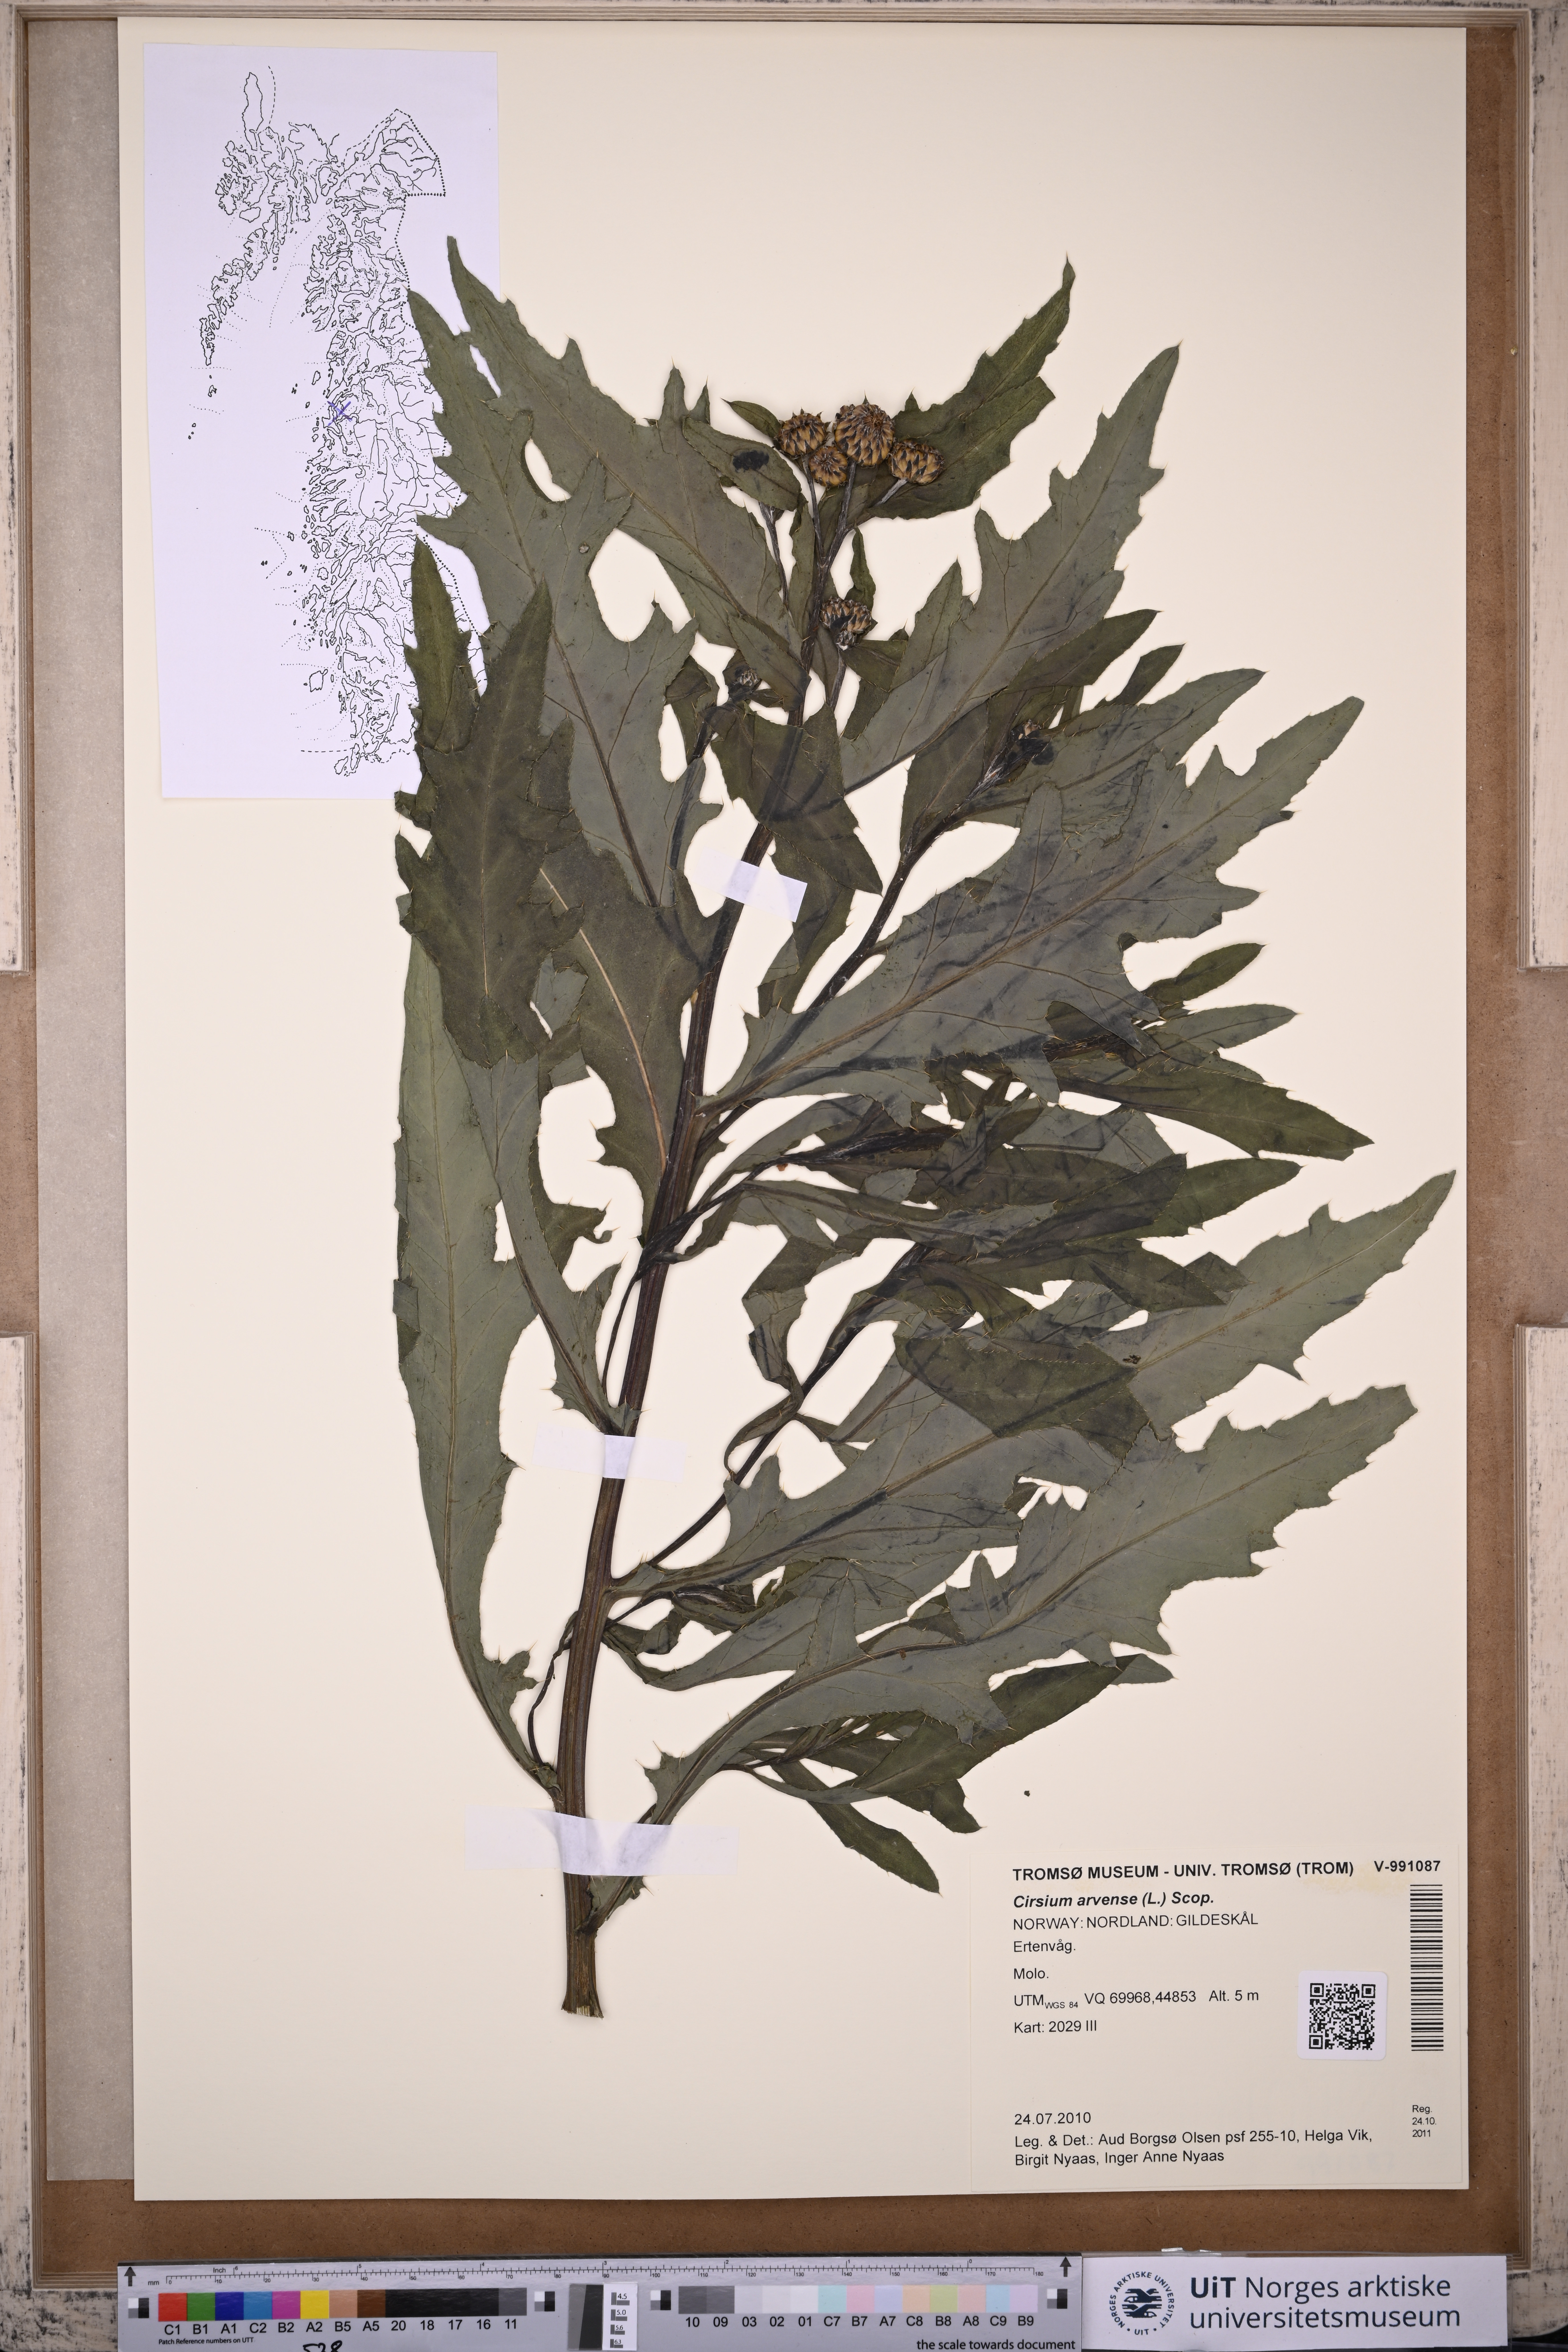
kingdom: Plantae
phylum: Tracheophyta
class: Magnoliopsida
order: Asterales
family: Asteraceae
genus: Cirsium
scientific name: Cirsium arvense
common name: Creeping thistle
